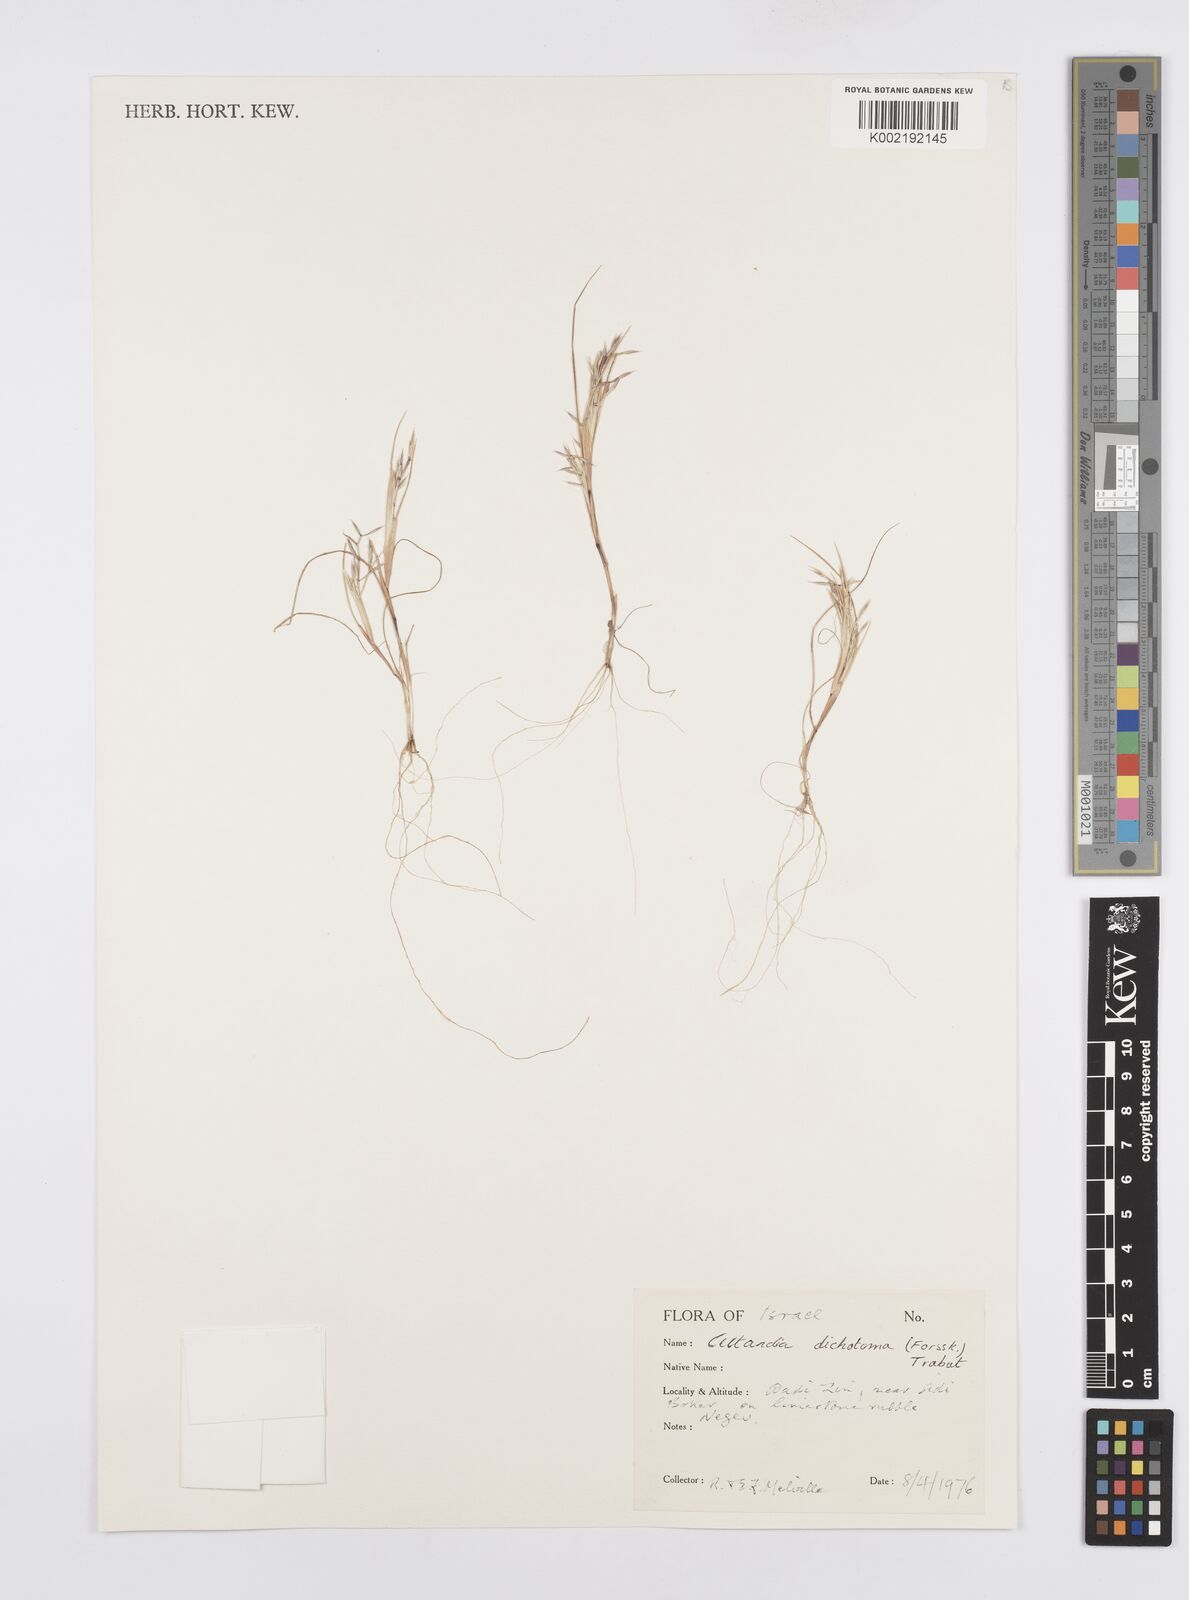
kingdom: Plantae
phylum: Tracheophyta
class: Liliopsida
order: Poales
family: Poaceae
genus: Cutandia
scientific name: Cutandia dichotoma
